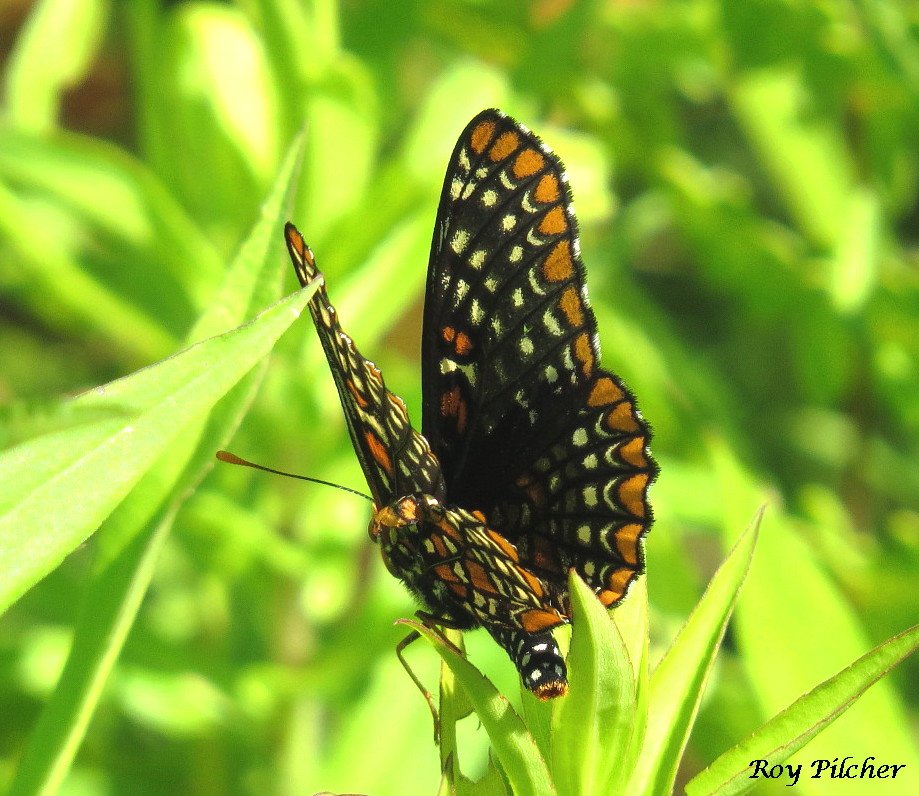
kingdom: Animalia
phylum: Arthropoda
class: Insecta
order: Lepidoptera
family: Nymphalidae
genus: Euphydryas
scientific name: Euphydryas phaeton
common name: Baltimore Checkerspot
